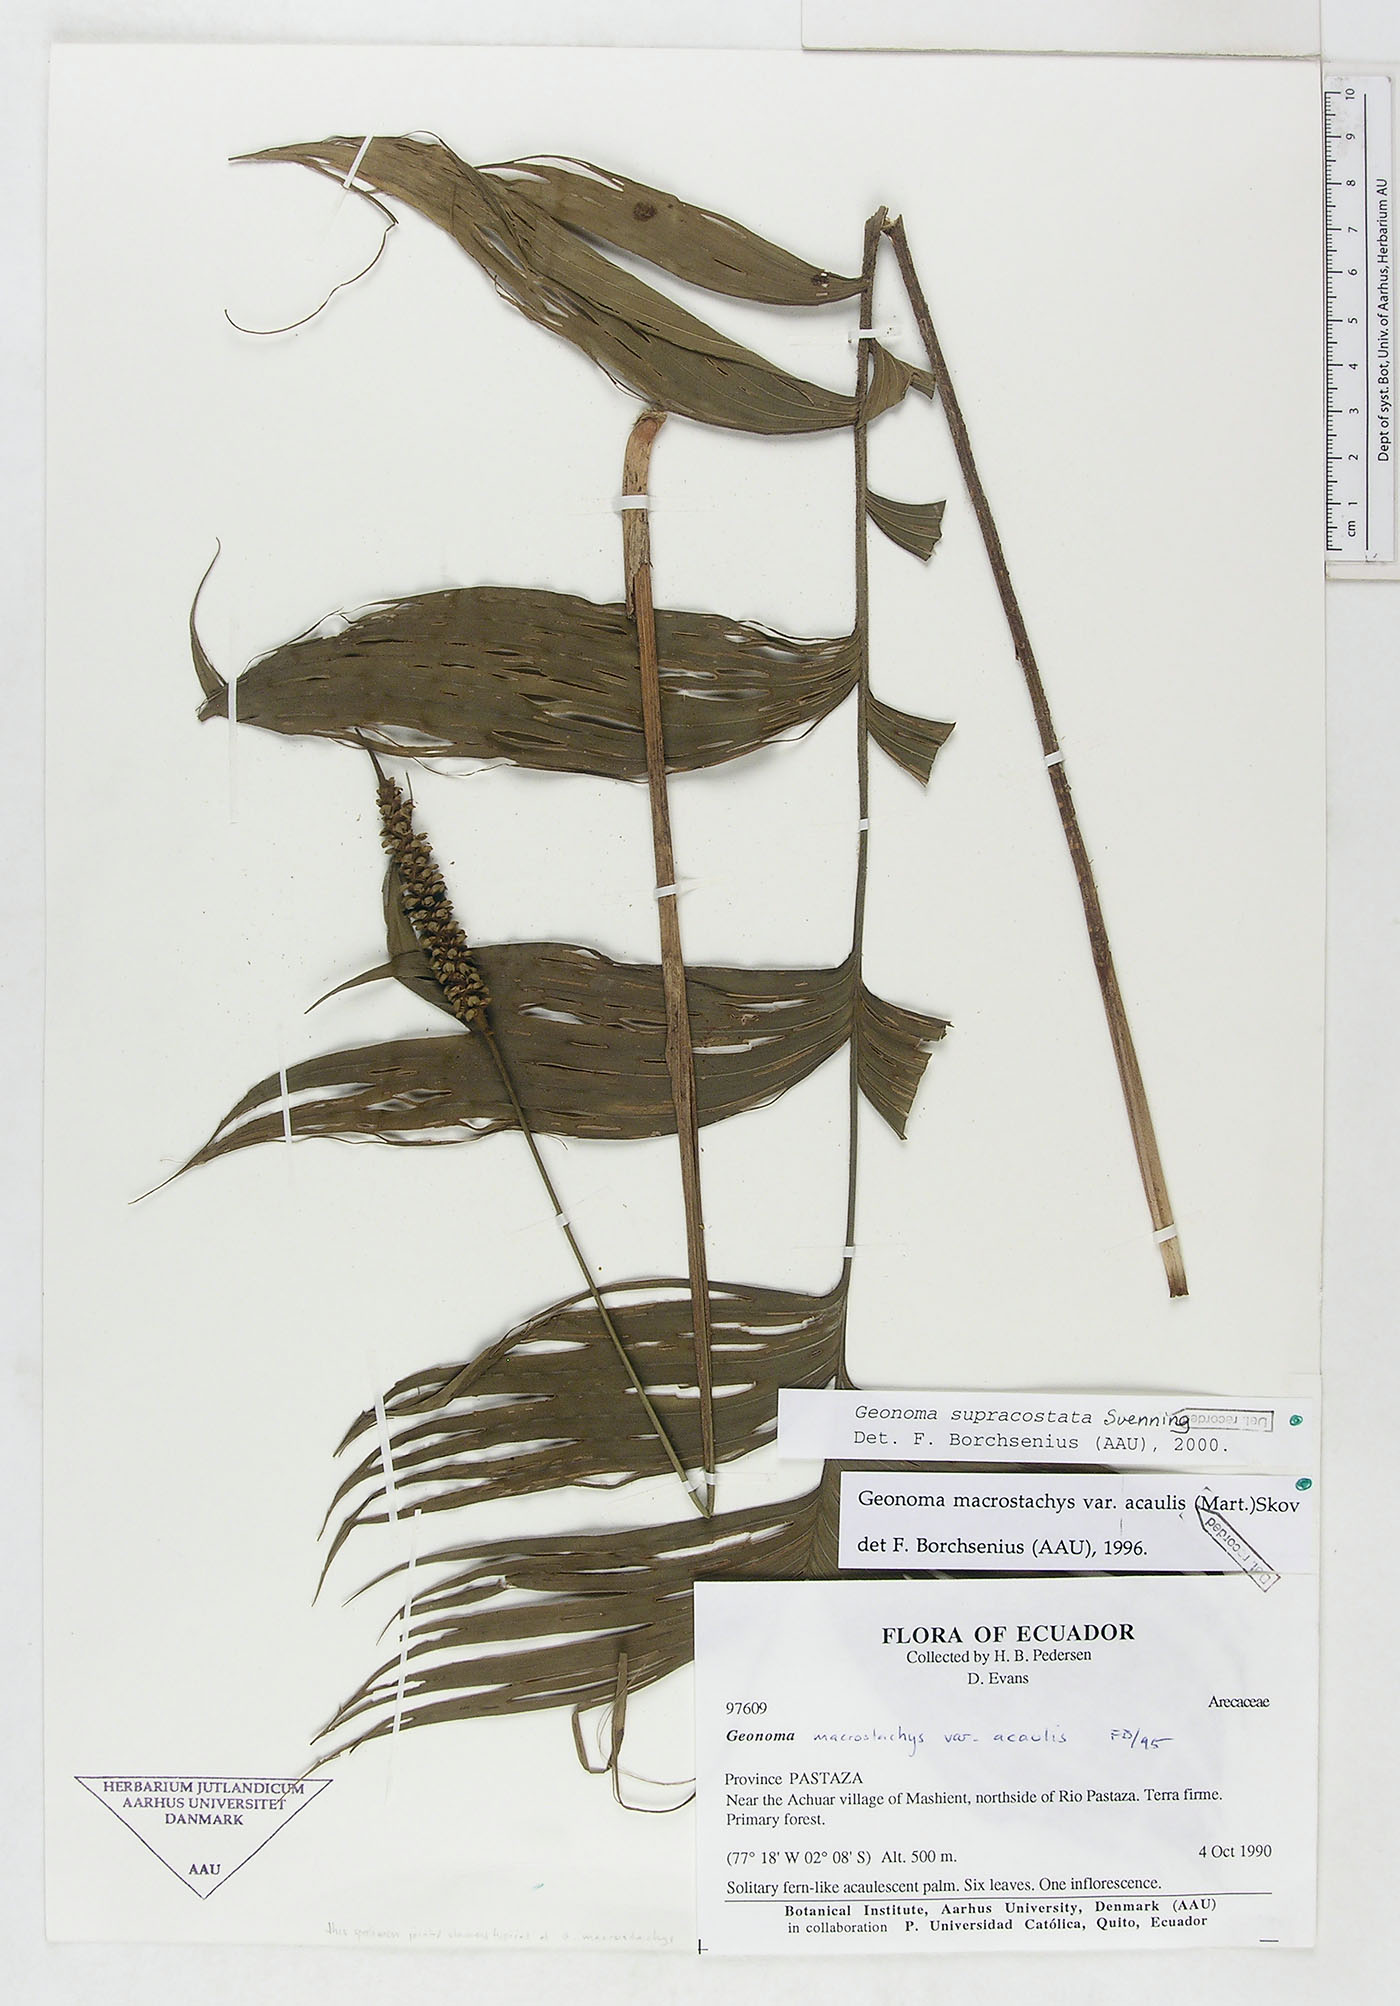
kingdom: Plantae
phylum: Tracheophyta
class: Liliopsida
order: Arecales
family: Arecaceae
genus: Geonoma
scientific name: Geonoma macrostachys
